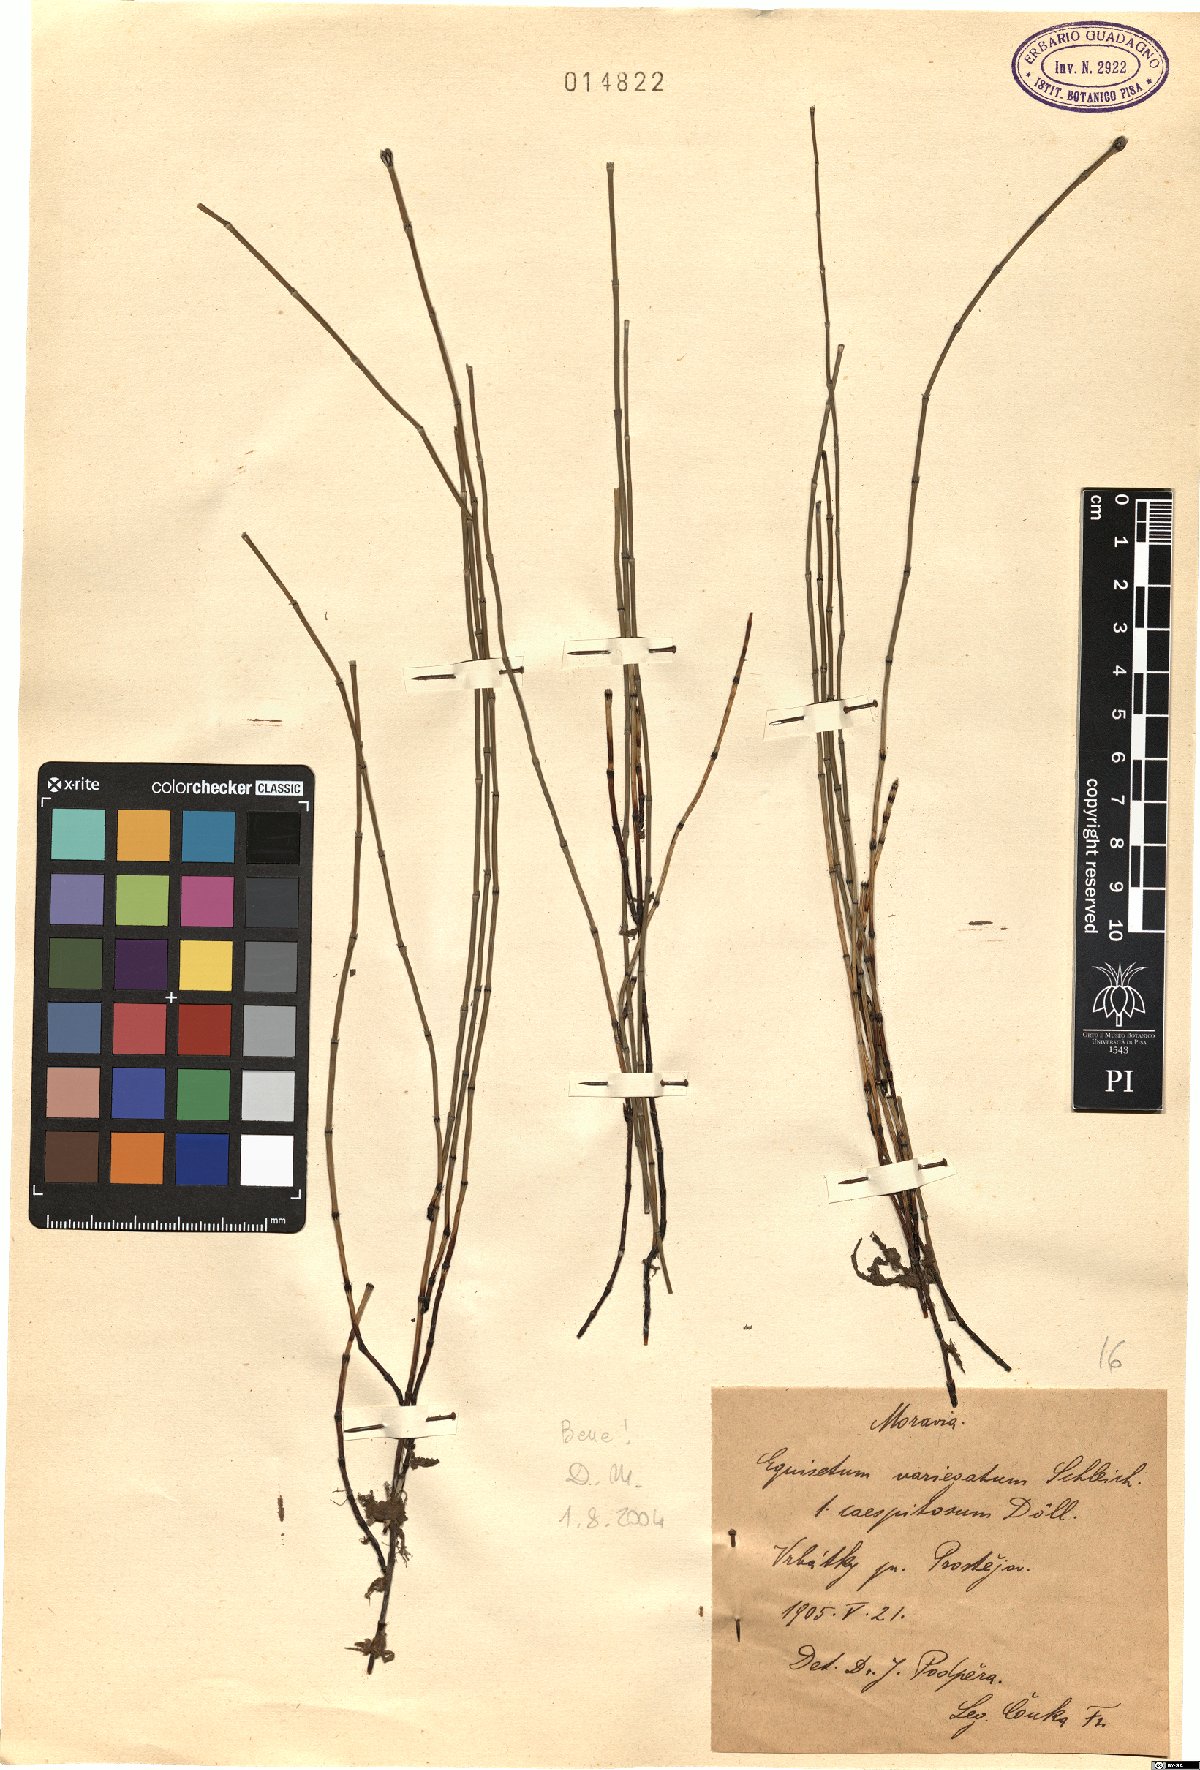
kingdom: Plantae
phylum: Tracheophyta
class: Polypodiopsida
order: Equisetales
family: Equisetaceae
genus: Equisetum
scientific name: Equisetum variegatum
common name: Variegated horsetail
